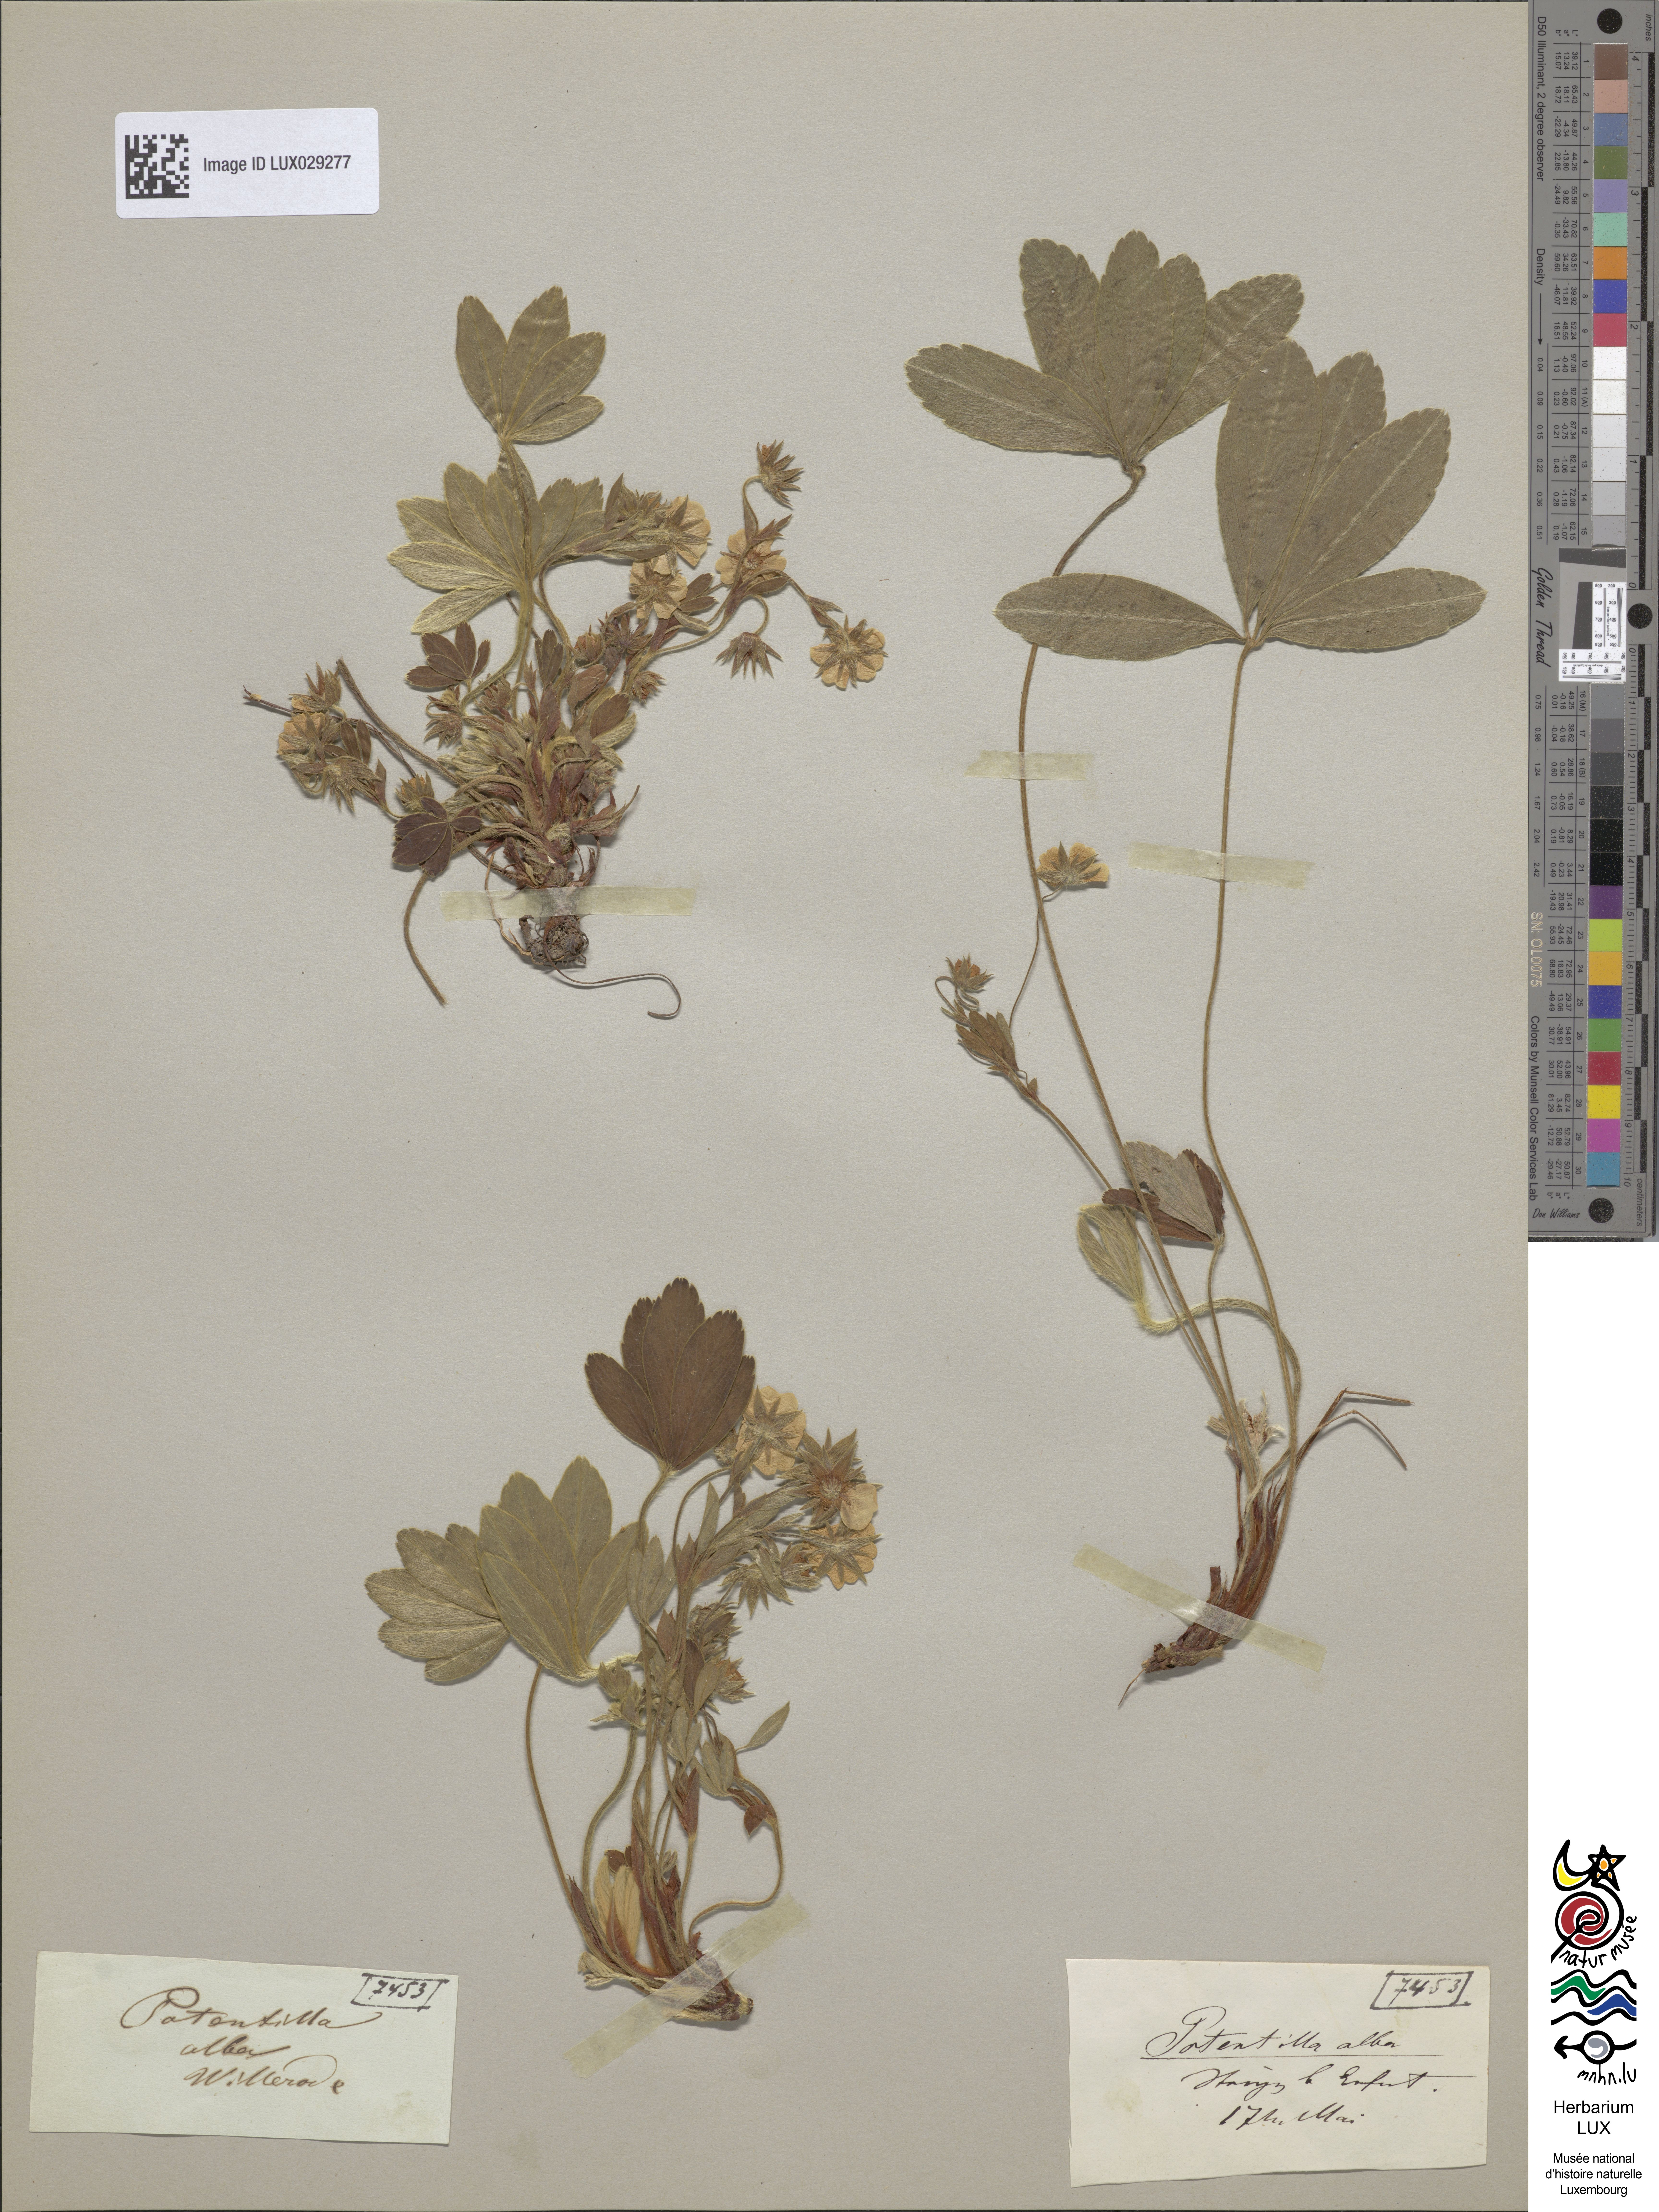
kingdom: Plantae
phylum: Tracheophyta
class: Magnoliopsida
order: Rosales
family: Rosaceae
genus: Potentilla
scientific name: Potentilla alba
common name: White cinquefoil
